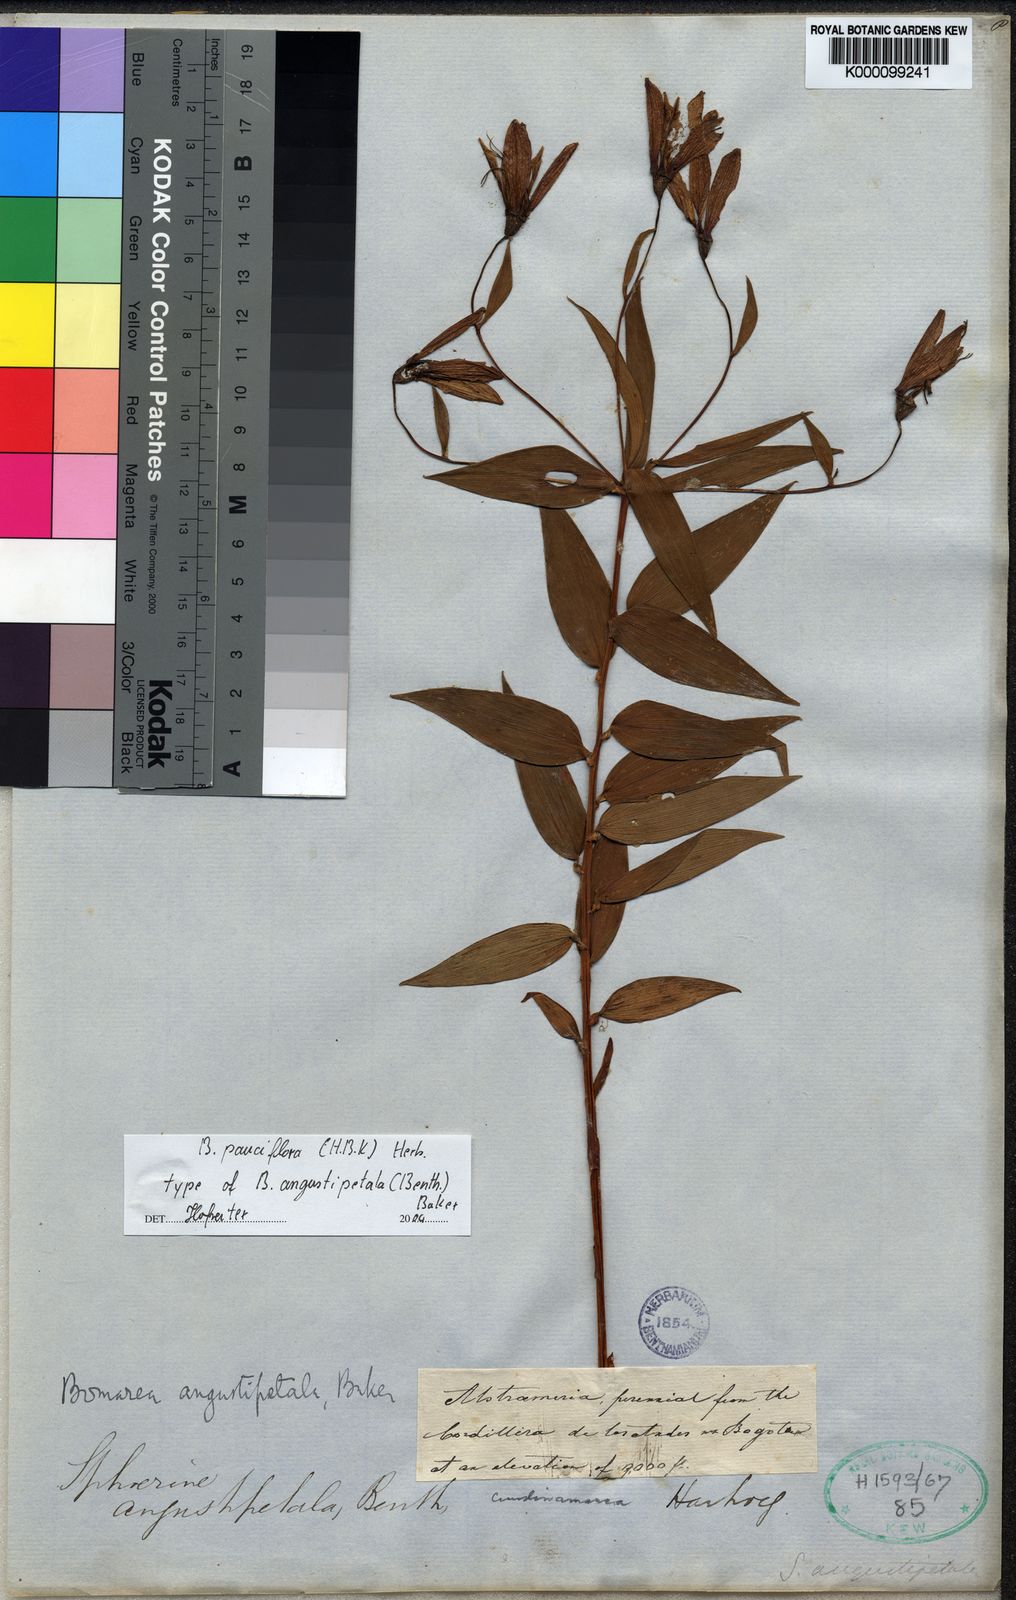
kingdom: Plantae
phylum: Tracheophyta
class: Liliopsida
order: Liliales
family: Alstroemeriaceae
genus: Bomarea
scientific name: Bomarea pauciflora
